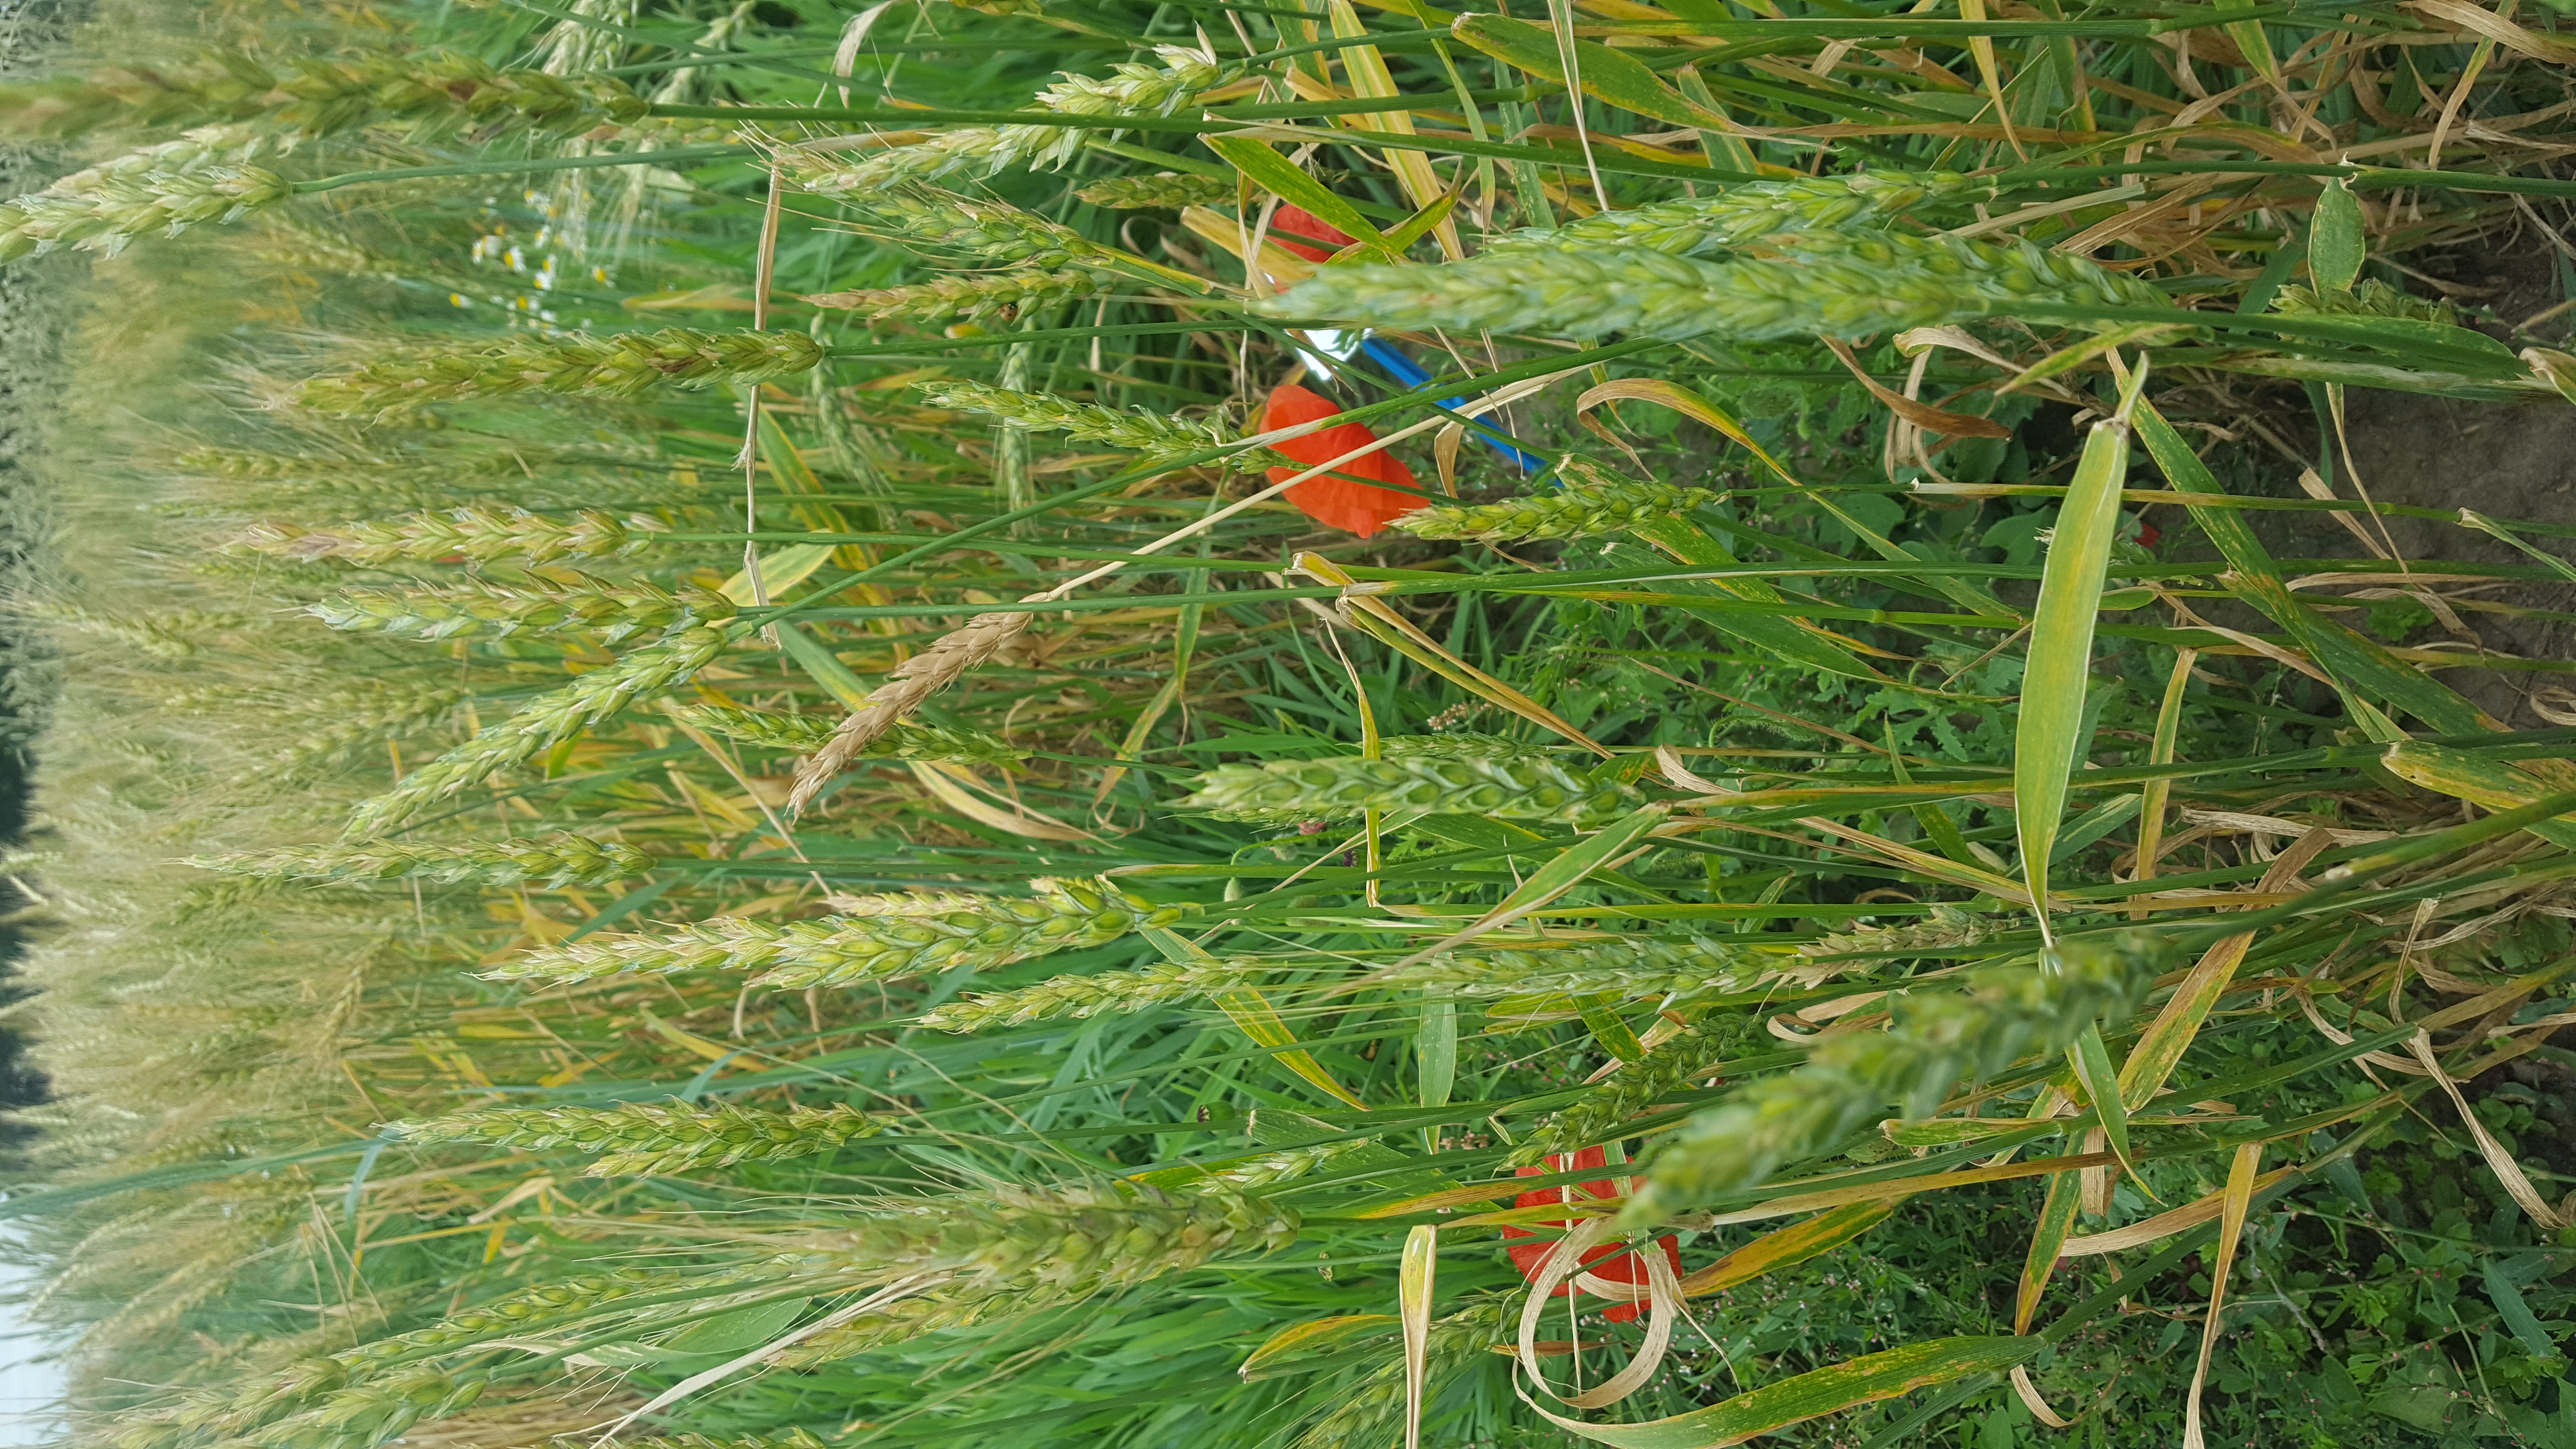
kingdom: Plantae
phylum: Tracheophyta
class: Liliopsida
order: Poales
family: Poaceae
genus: Triticum
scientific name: Triticum aestivum
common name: Common wheat
